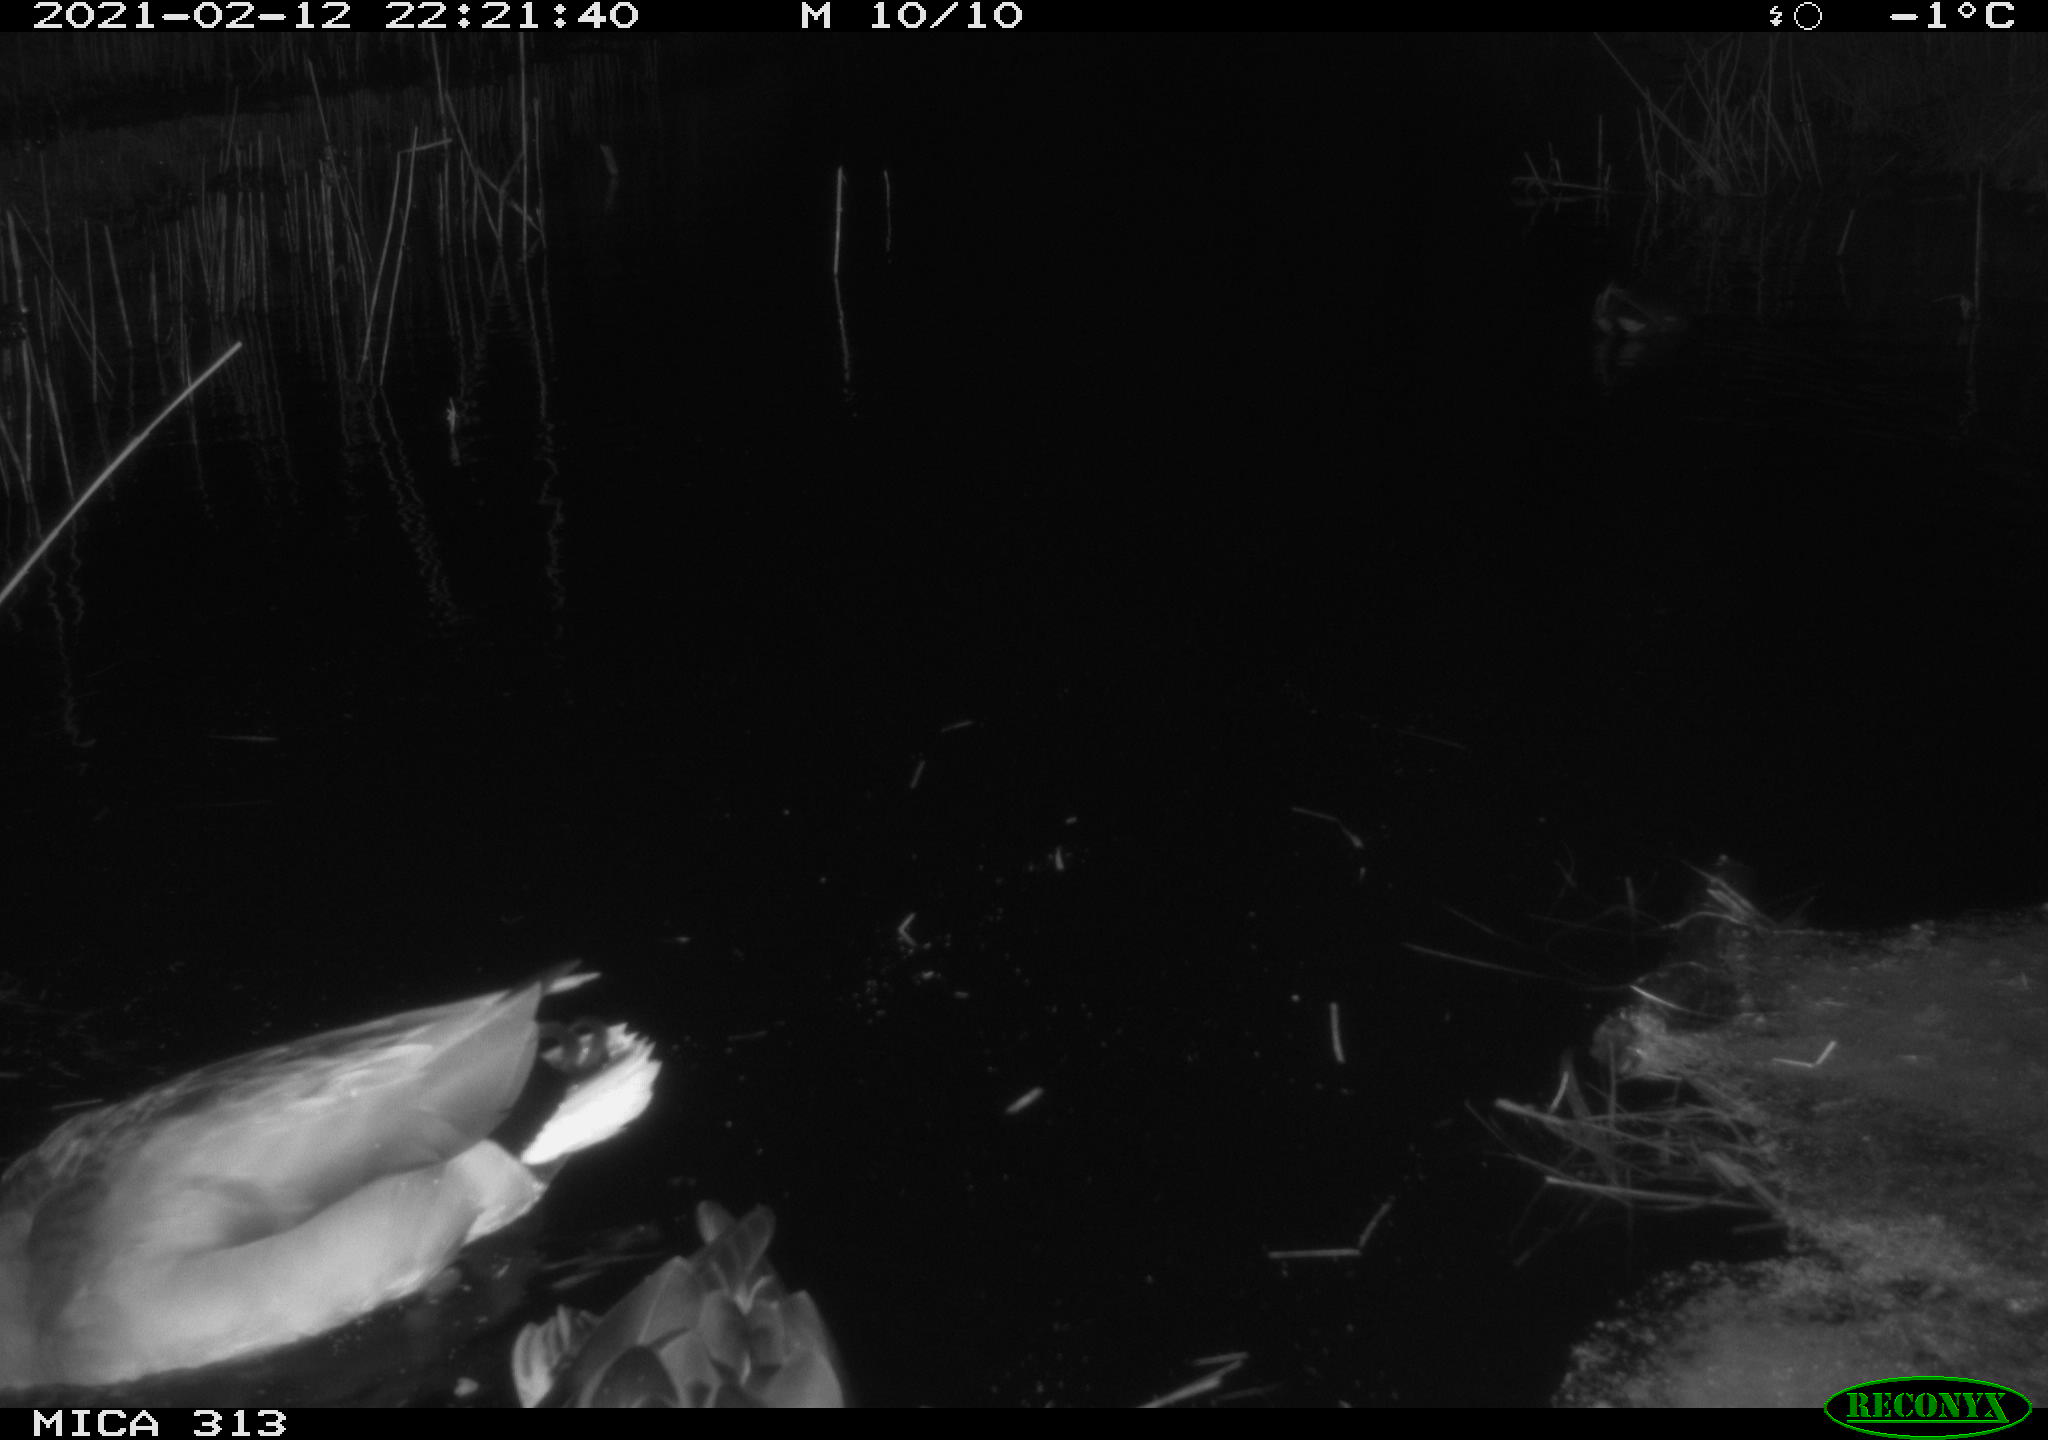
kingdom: Animalia
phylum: Chordata
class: Aves
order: Gruiformes
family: Rallidae
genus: Gallinula
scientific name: Gallinula chloropus
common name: Common moorhen
